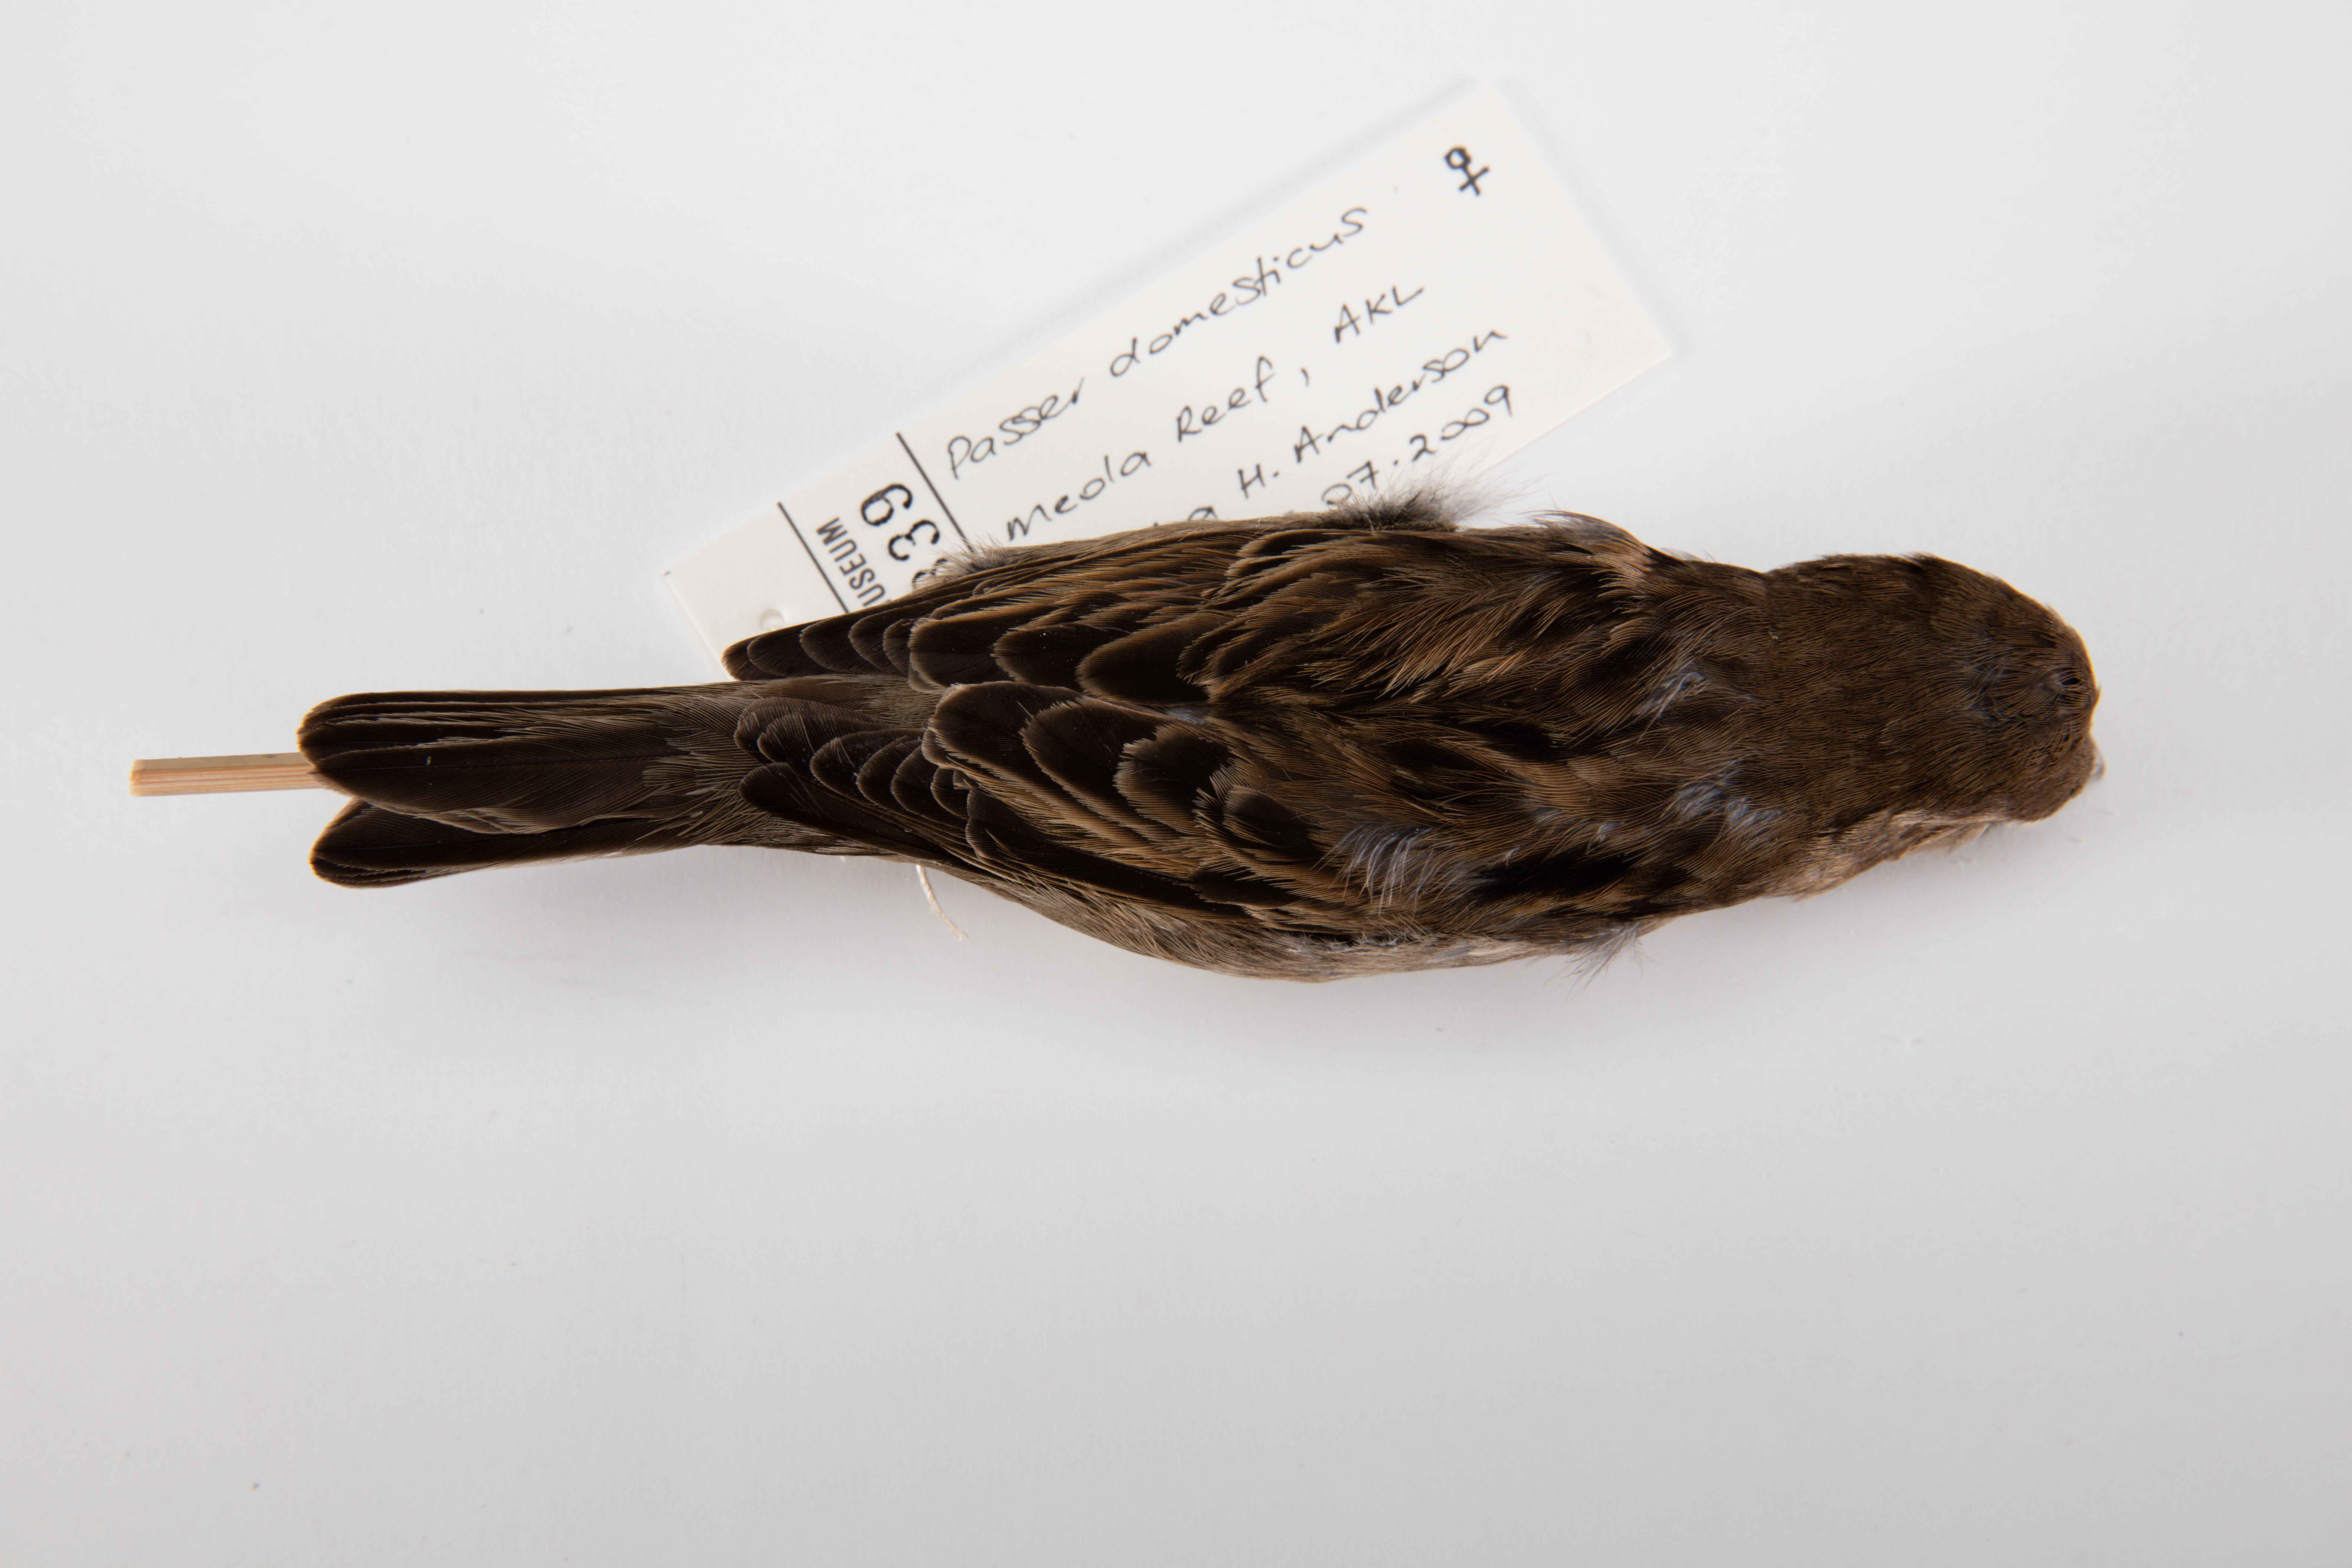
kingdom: Animalia
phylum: Chordata
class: Aves
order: Passeriformes
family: Passeridae
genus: Passer
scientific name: Passer domesticus
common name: House sparrow
